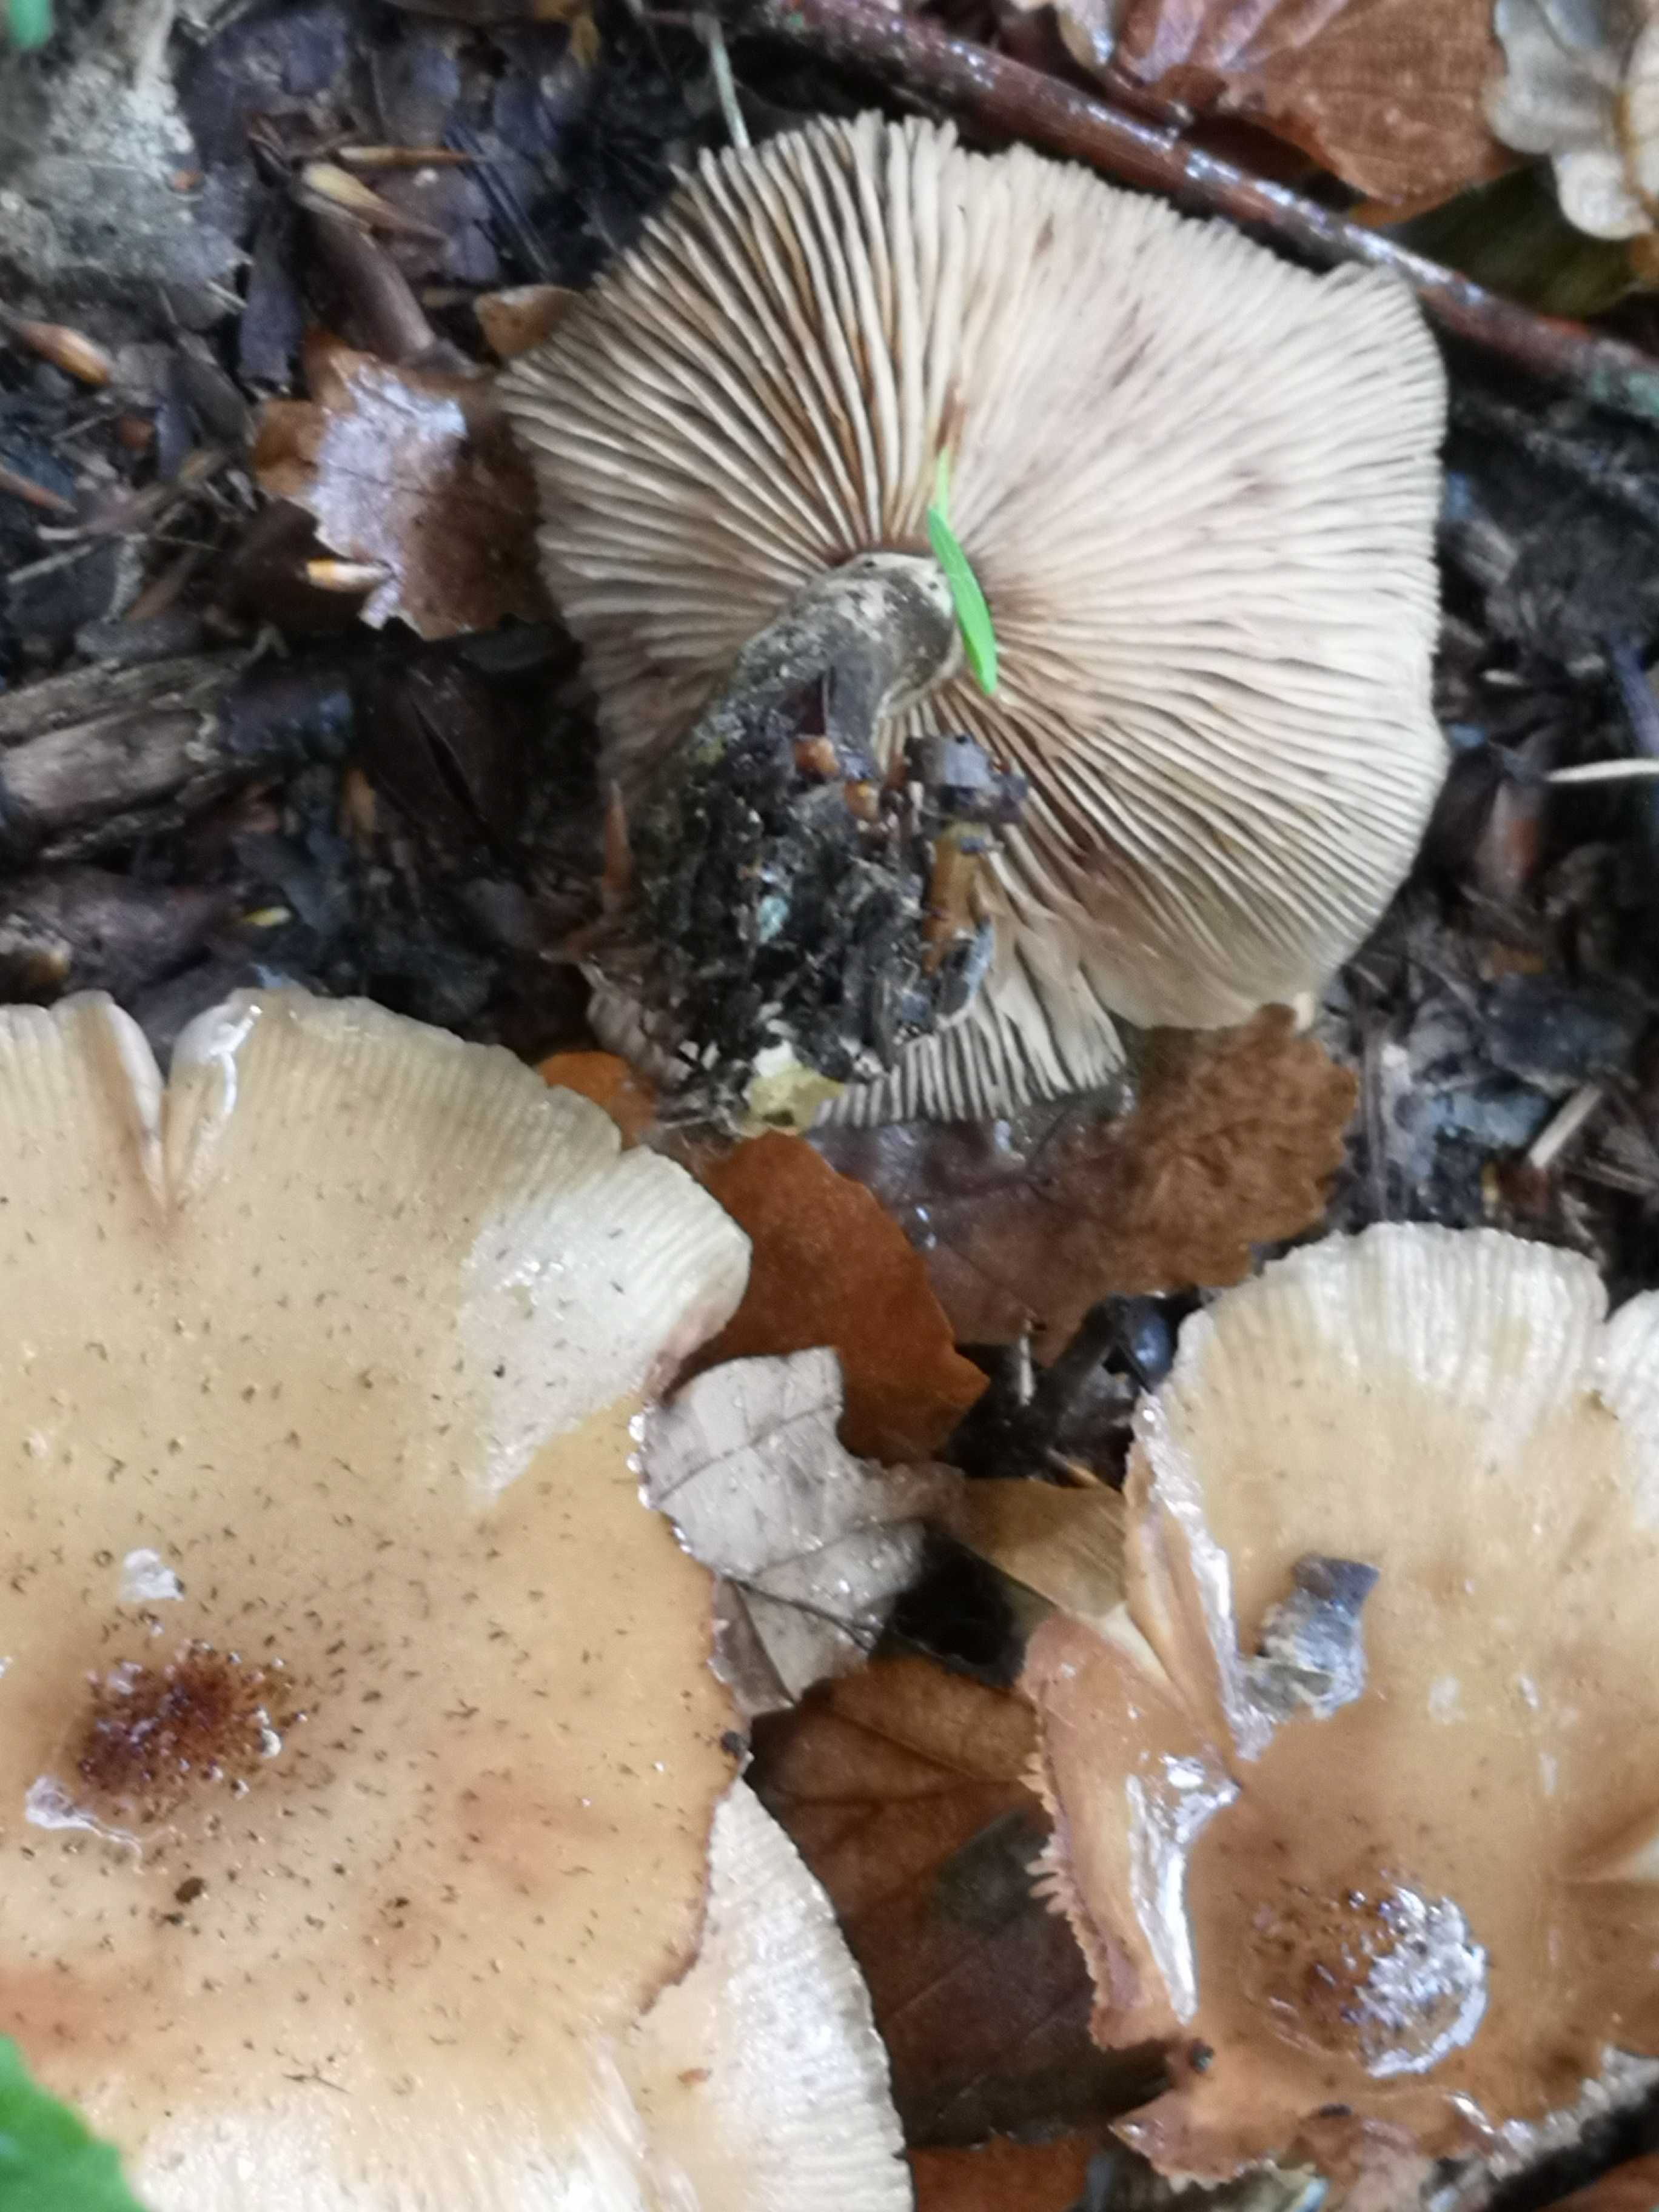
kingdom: Fungi
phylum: Basidiomycota
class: Agaricomycetes
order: Agaricales
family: Physalacriaceae
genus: Armillaria
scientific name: Armillaria lutea
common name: køllestokket honningsvamp
